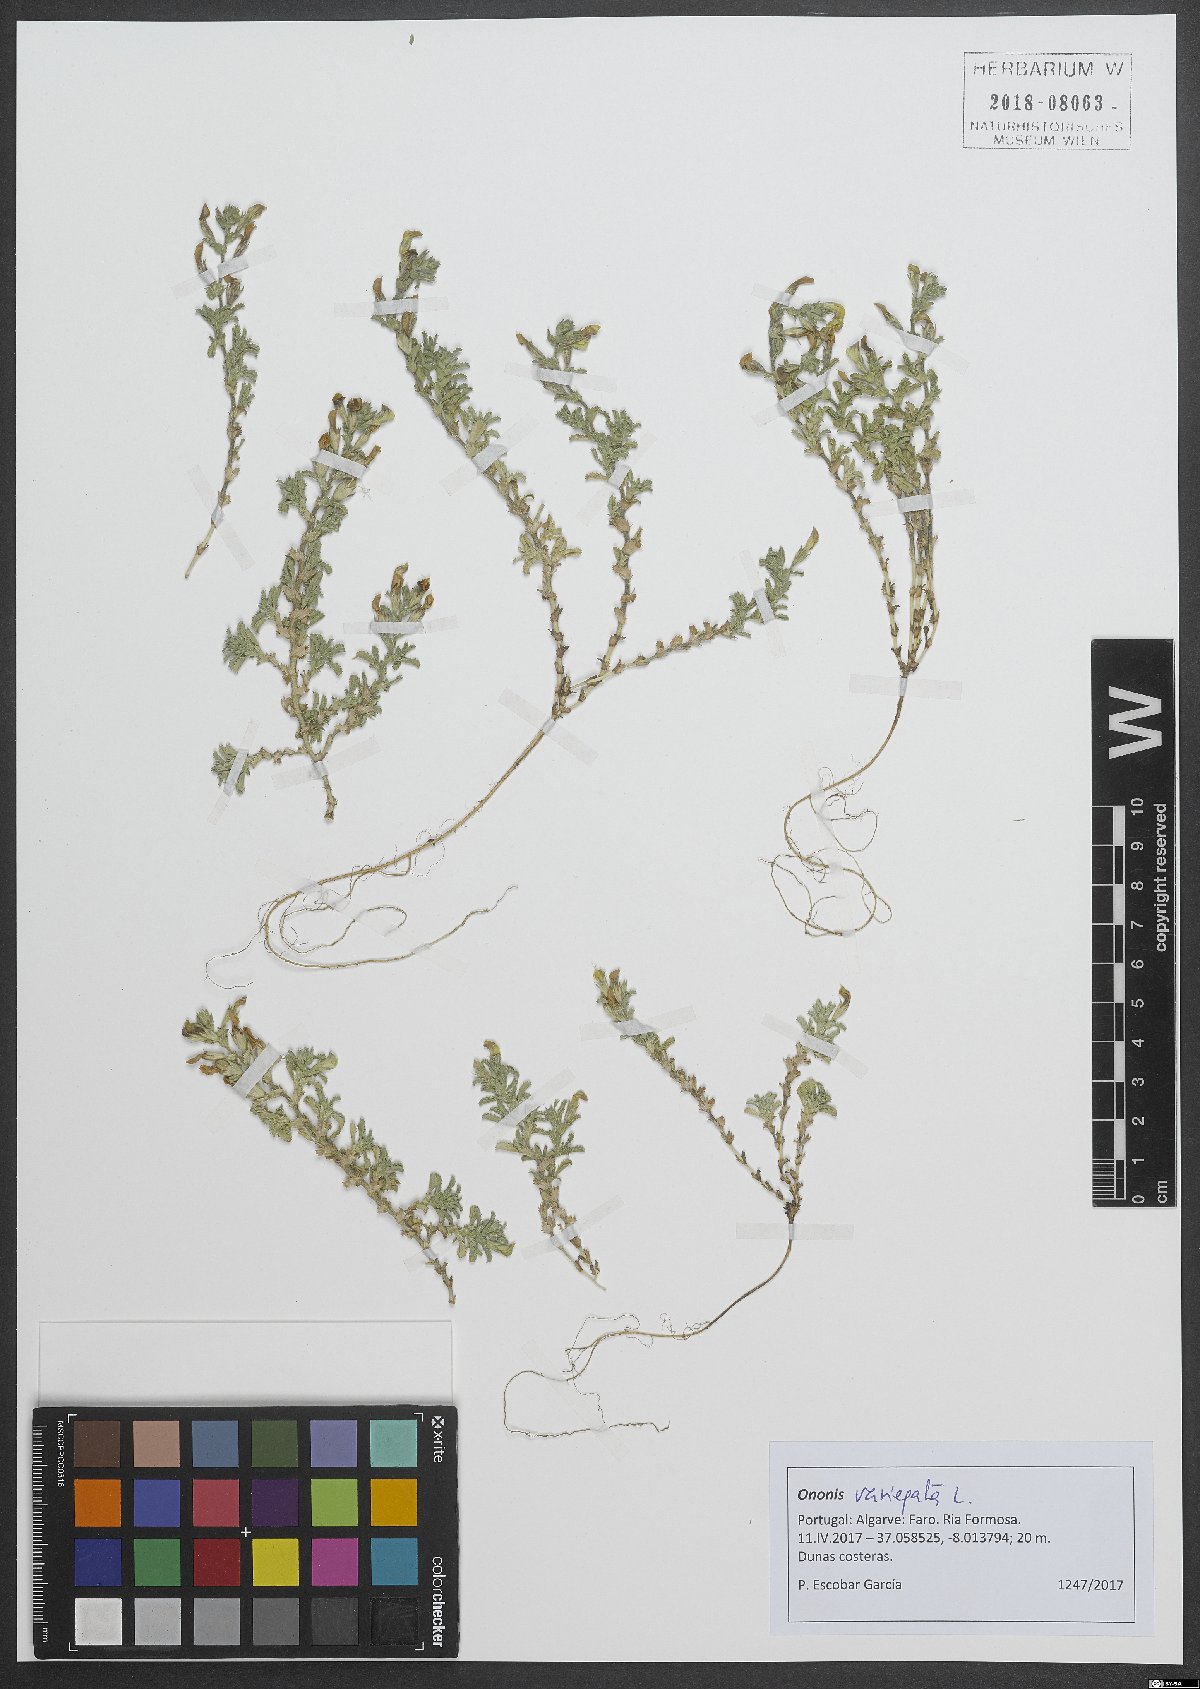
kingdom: Plantae
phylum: Tracheophyta
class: Magnoliopsida
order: Fabales
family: Fabaceae
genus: Ononis
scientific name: Ononis variegata
